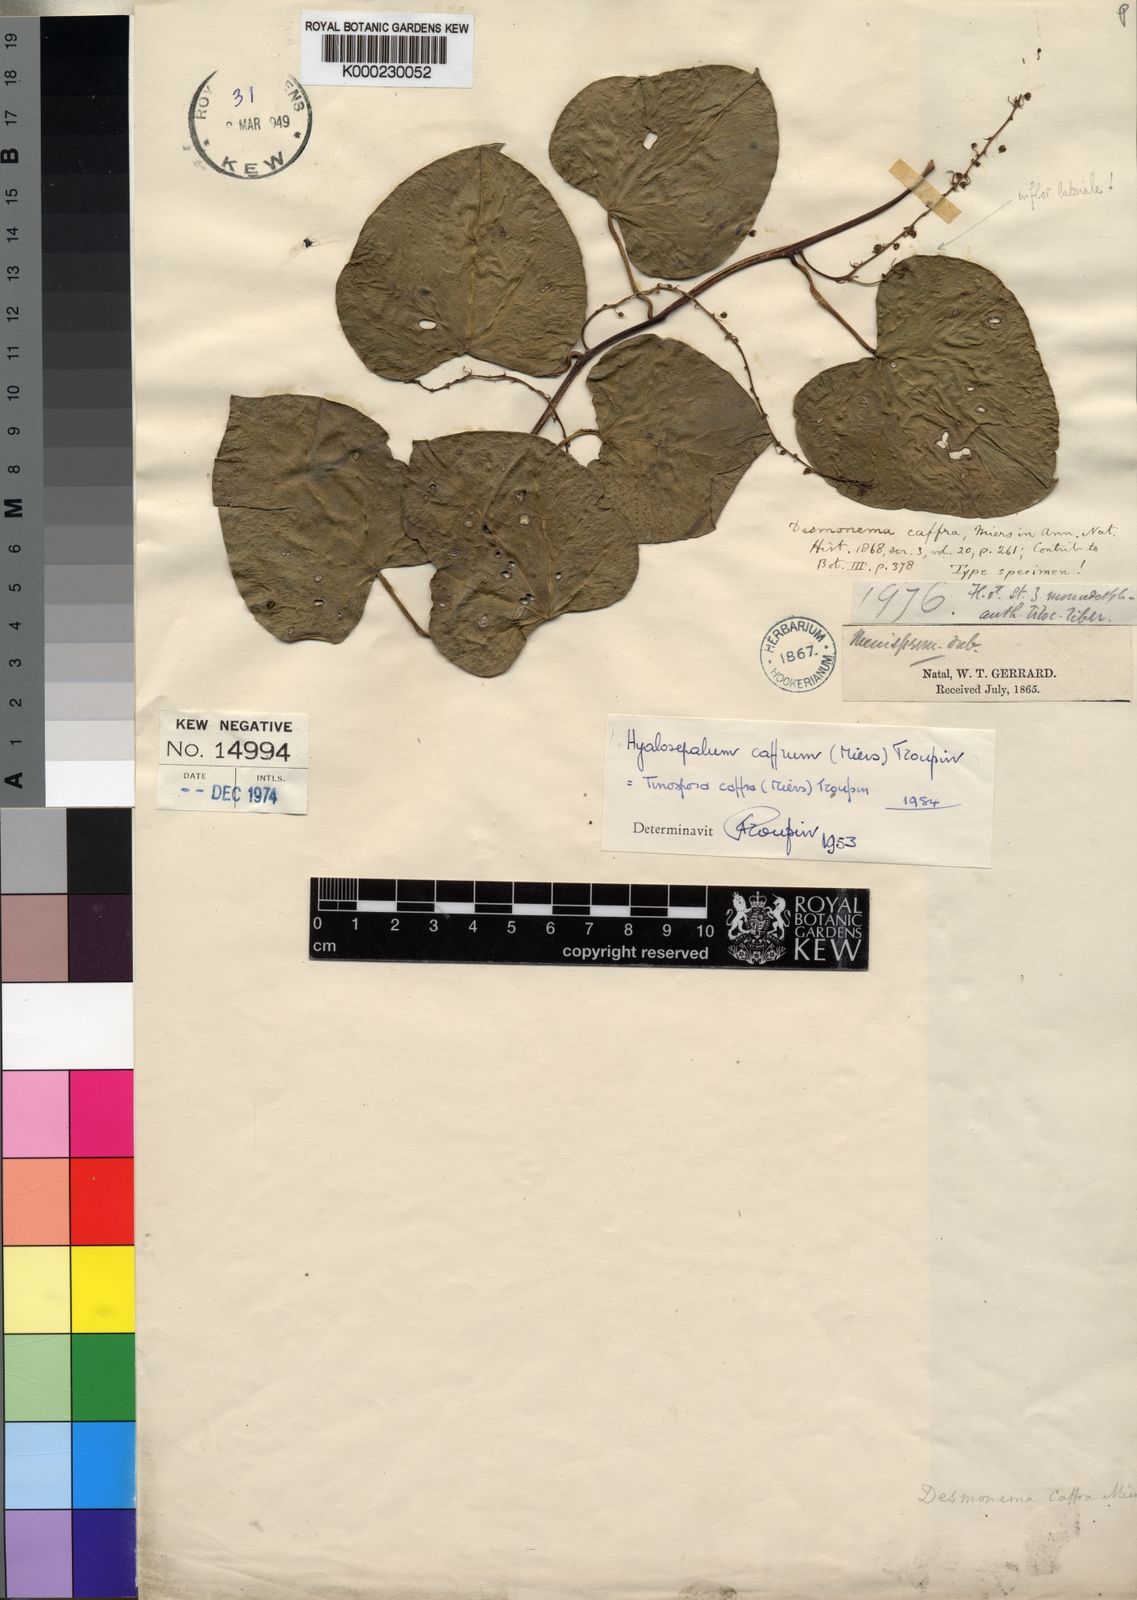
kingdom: Plantae
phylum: Tracheophyta
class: Magnoliopsida
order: Ranunculales
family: Menispermaceae
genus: Tinospora
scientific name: Tinospora caffra
